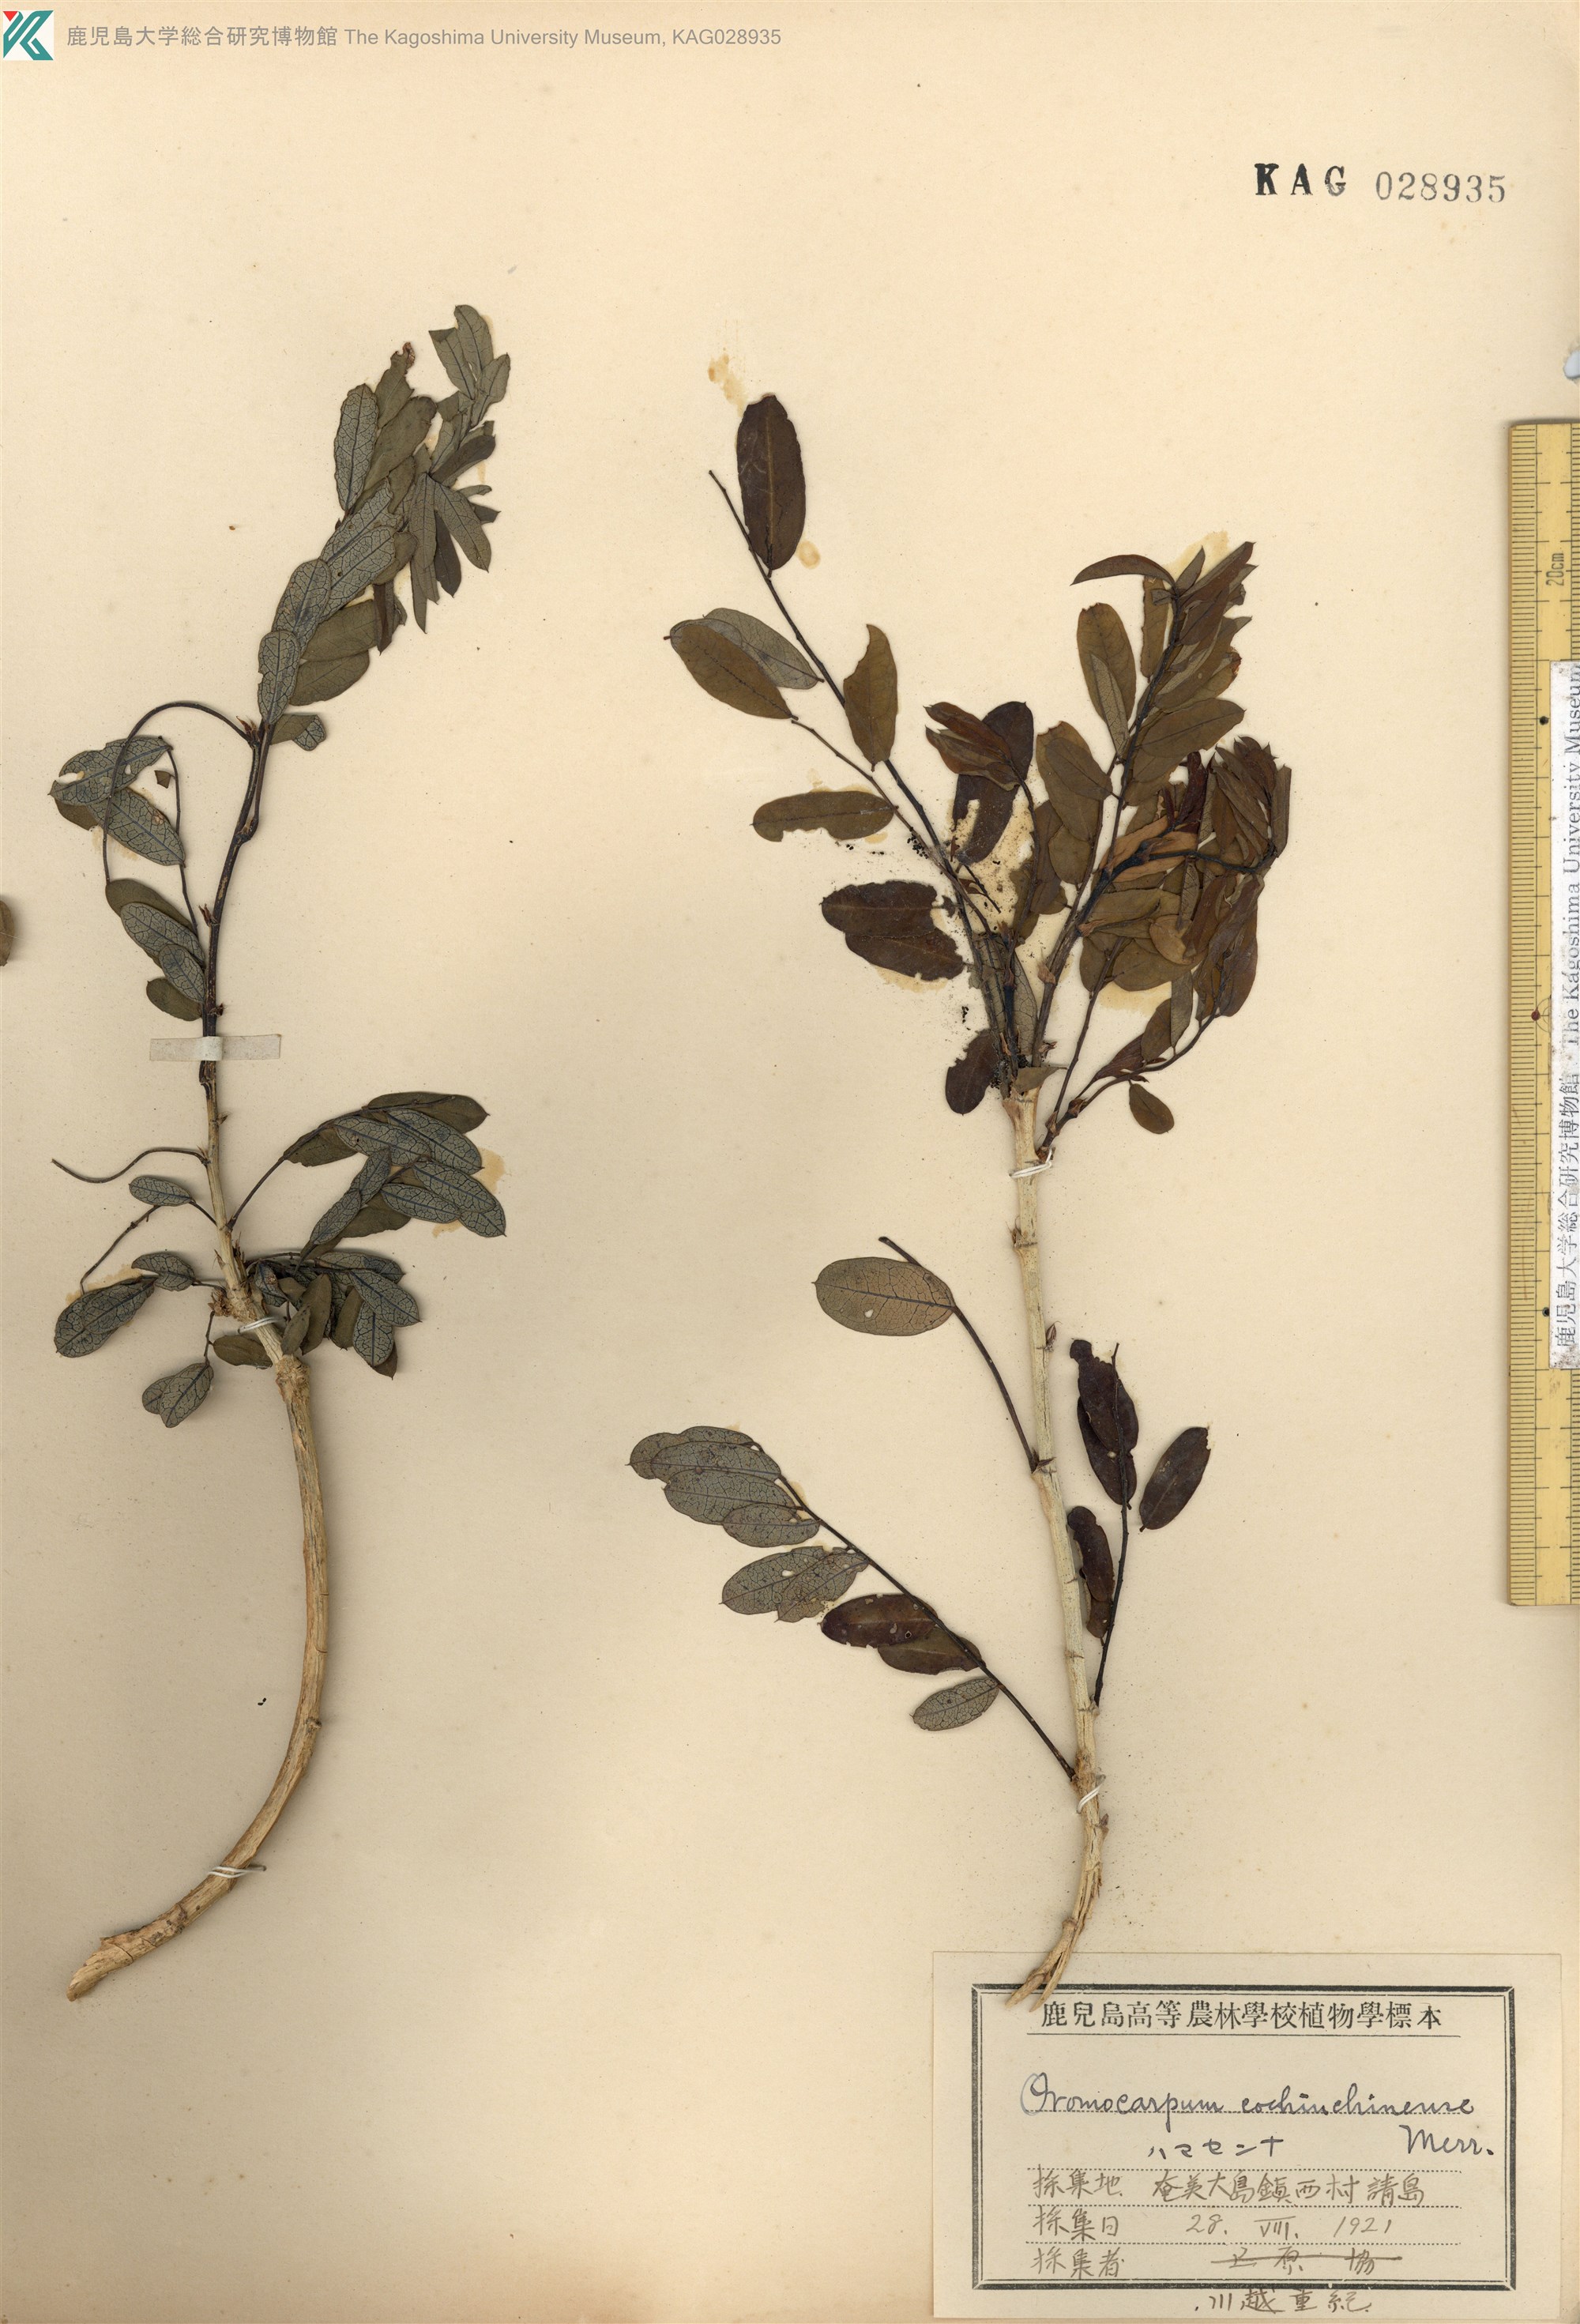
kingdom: Plantae
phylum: Tracheophyta
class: Magnoliopsida
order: Fabales
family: Fabaceae
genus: Ormocarpum
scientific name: Ormocarpum cochinchinense
